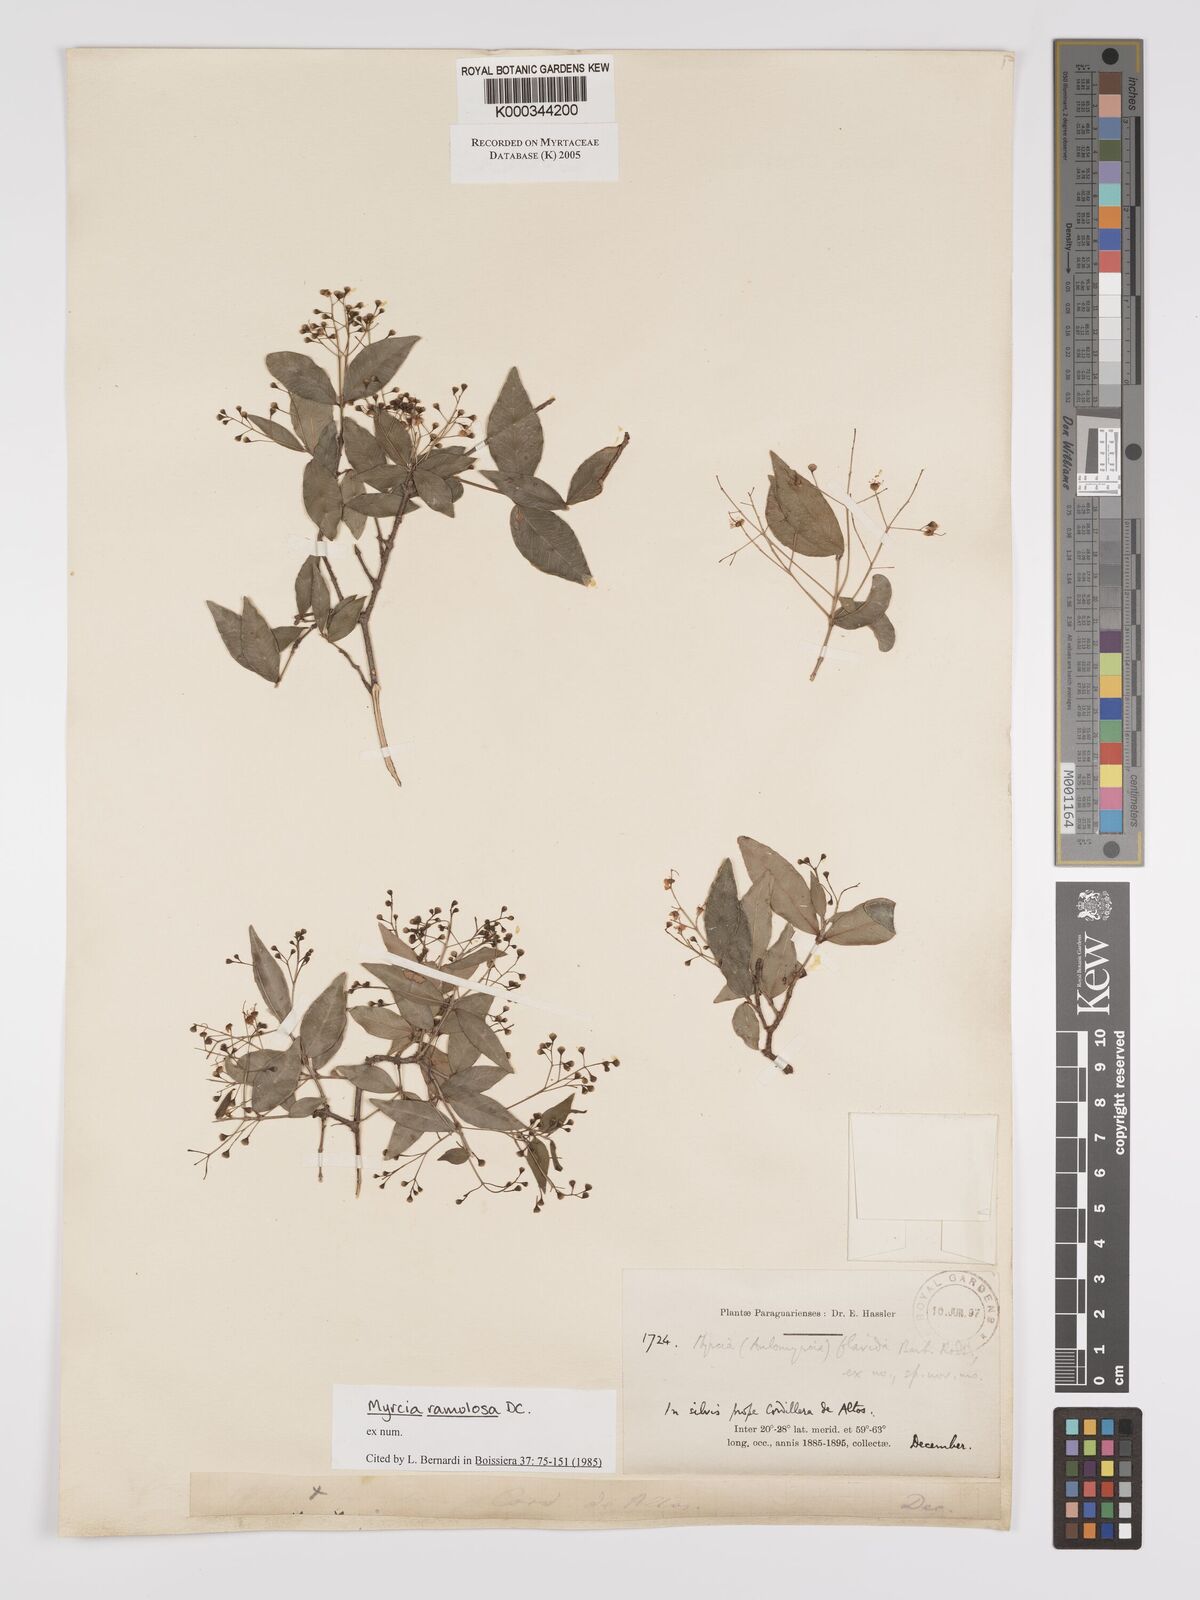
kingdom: Plantae
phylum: Tracheophyta
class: Magnoliopsida
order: Myrtales
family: Myrtaceae
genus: Myrcia
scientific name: Myrcia selloi
